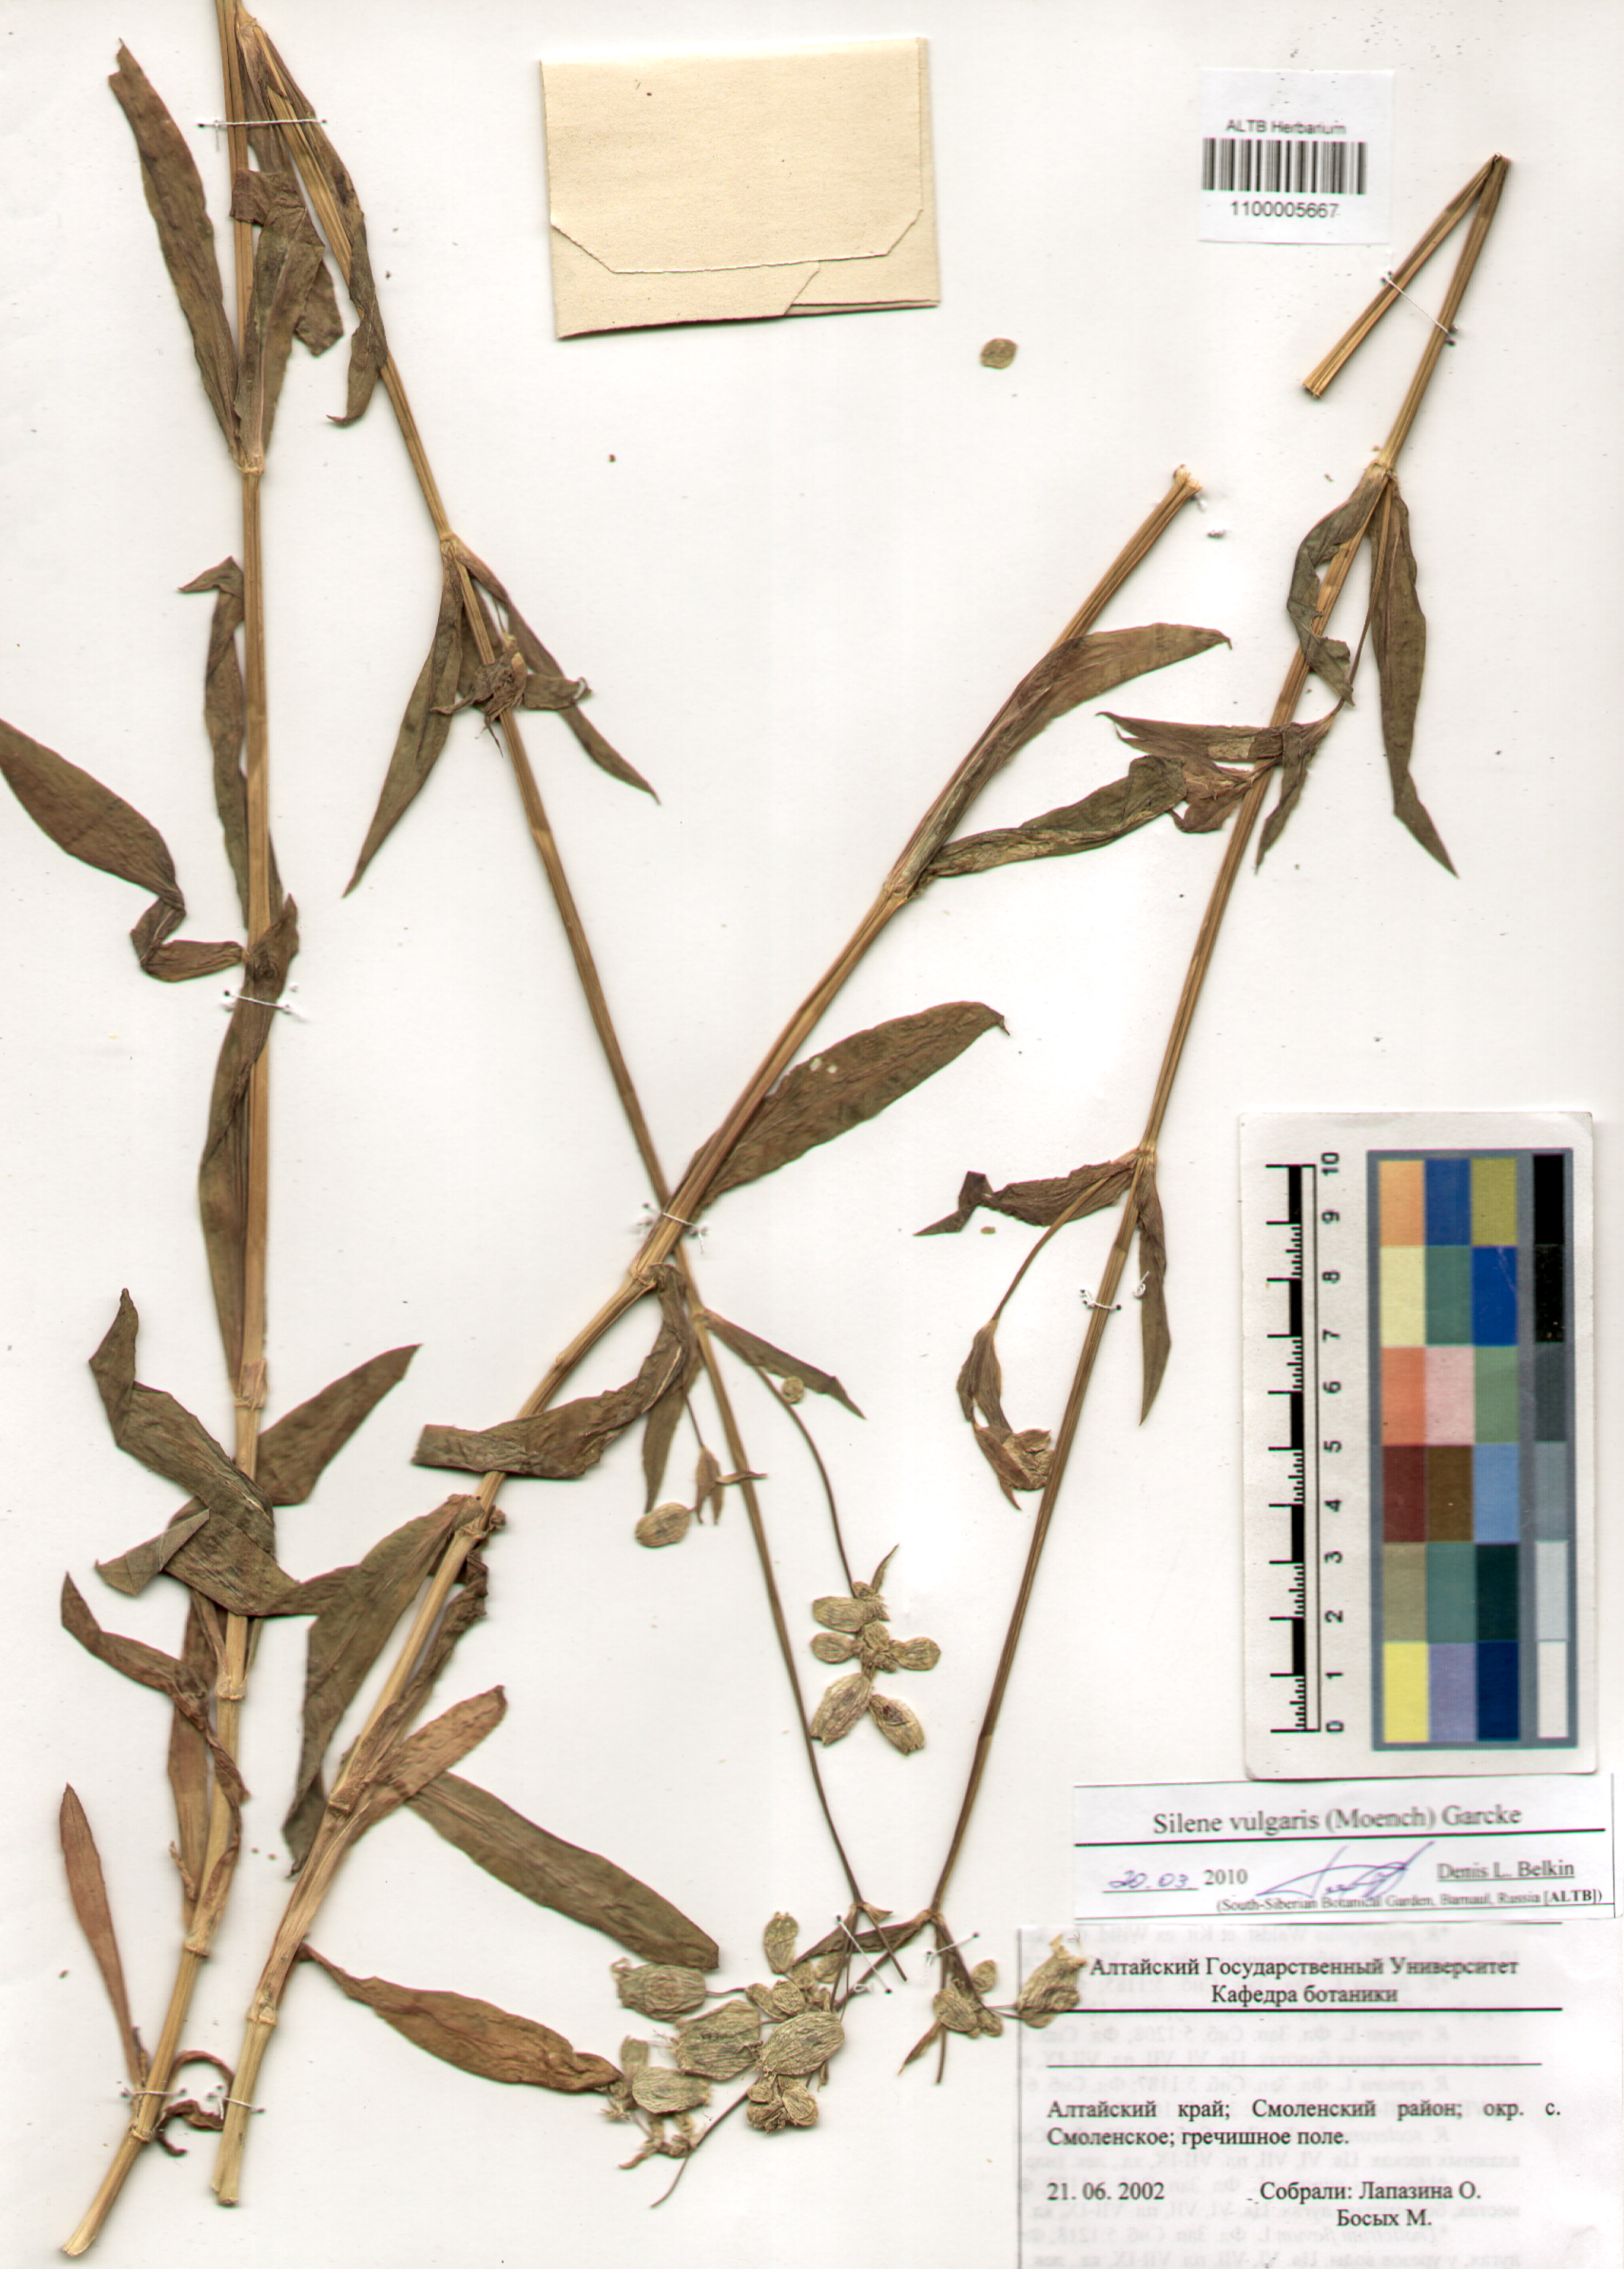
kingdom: Plantae
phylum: Tracheophyta
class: Magnoliopsida
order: Caryophyllales
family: Caryophyllaceae
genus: Silene
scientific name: Silene vulgaris
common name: Bladder campion
